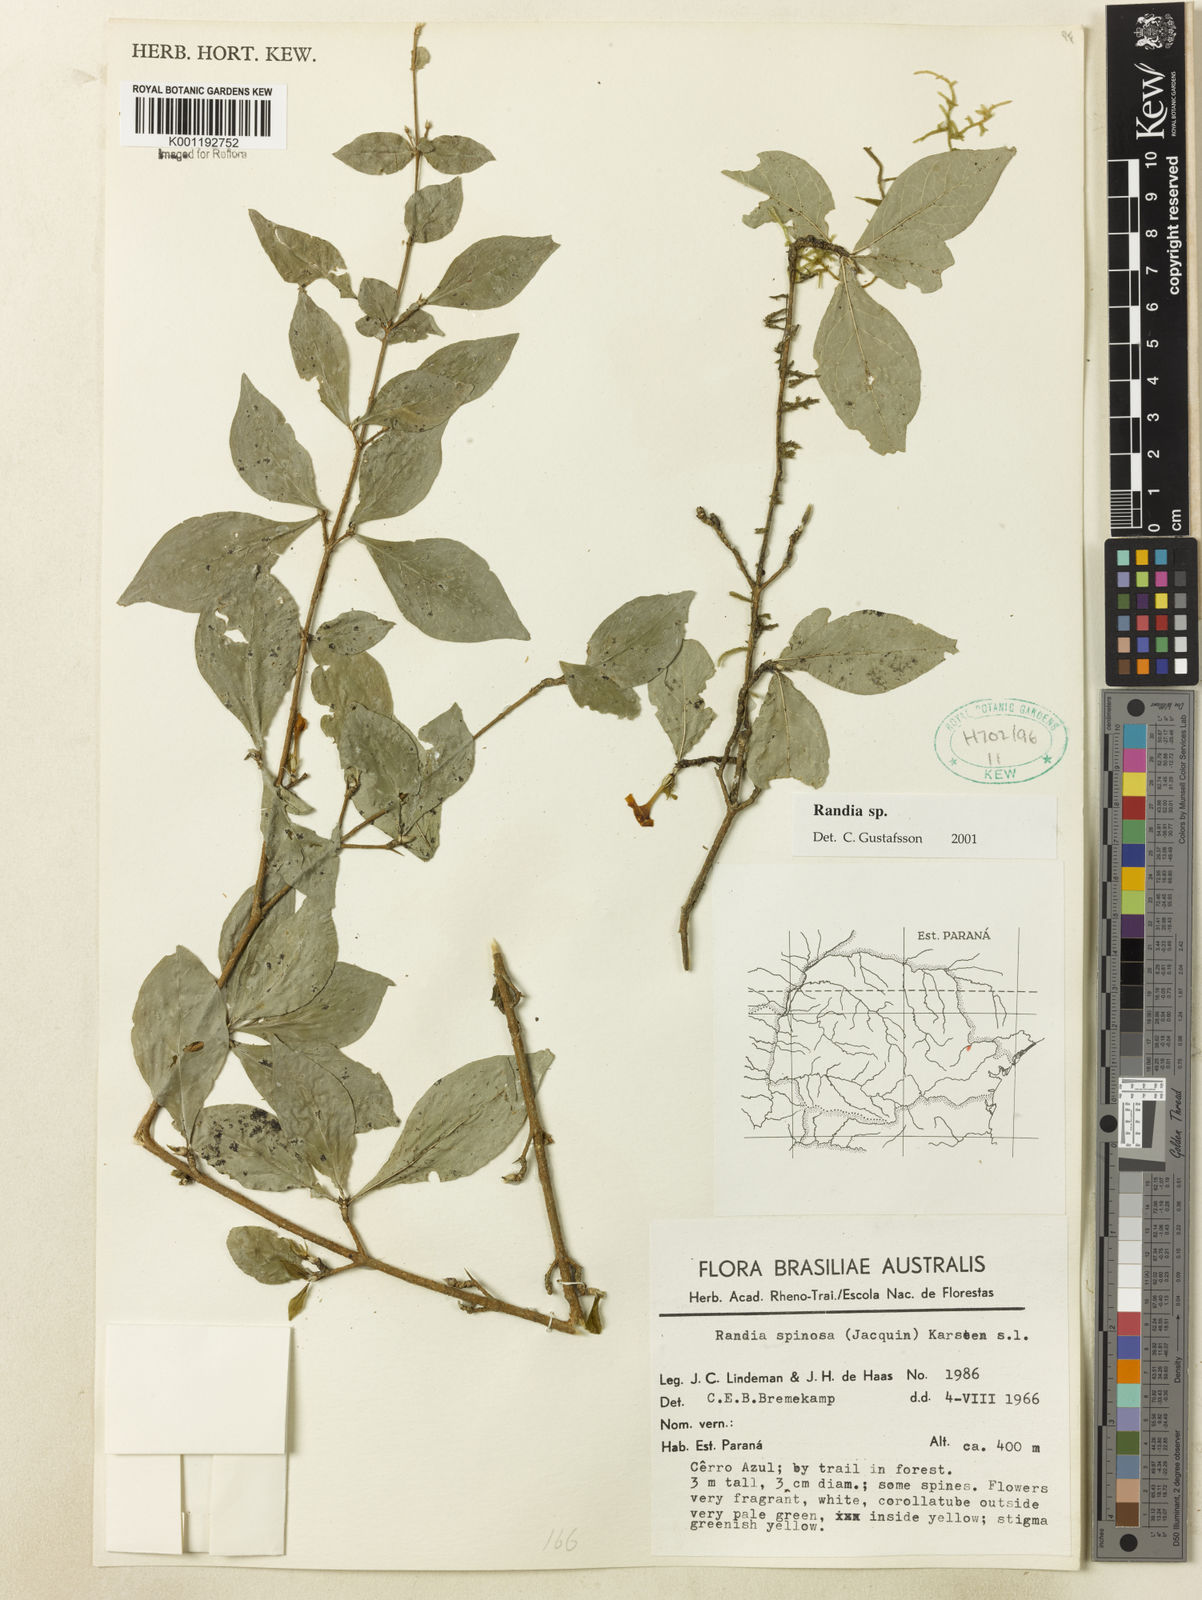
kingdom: Plantae
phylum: Tracheophyta
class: Magnoliopsida
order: Gentianales
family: Rubiaceae
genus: Randia
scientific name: Randia
